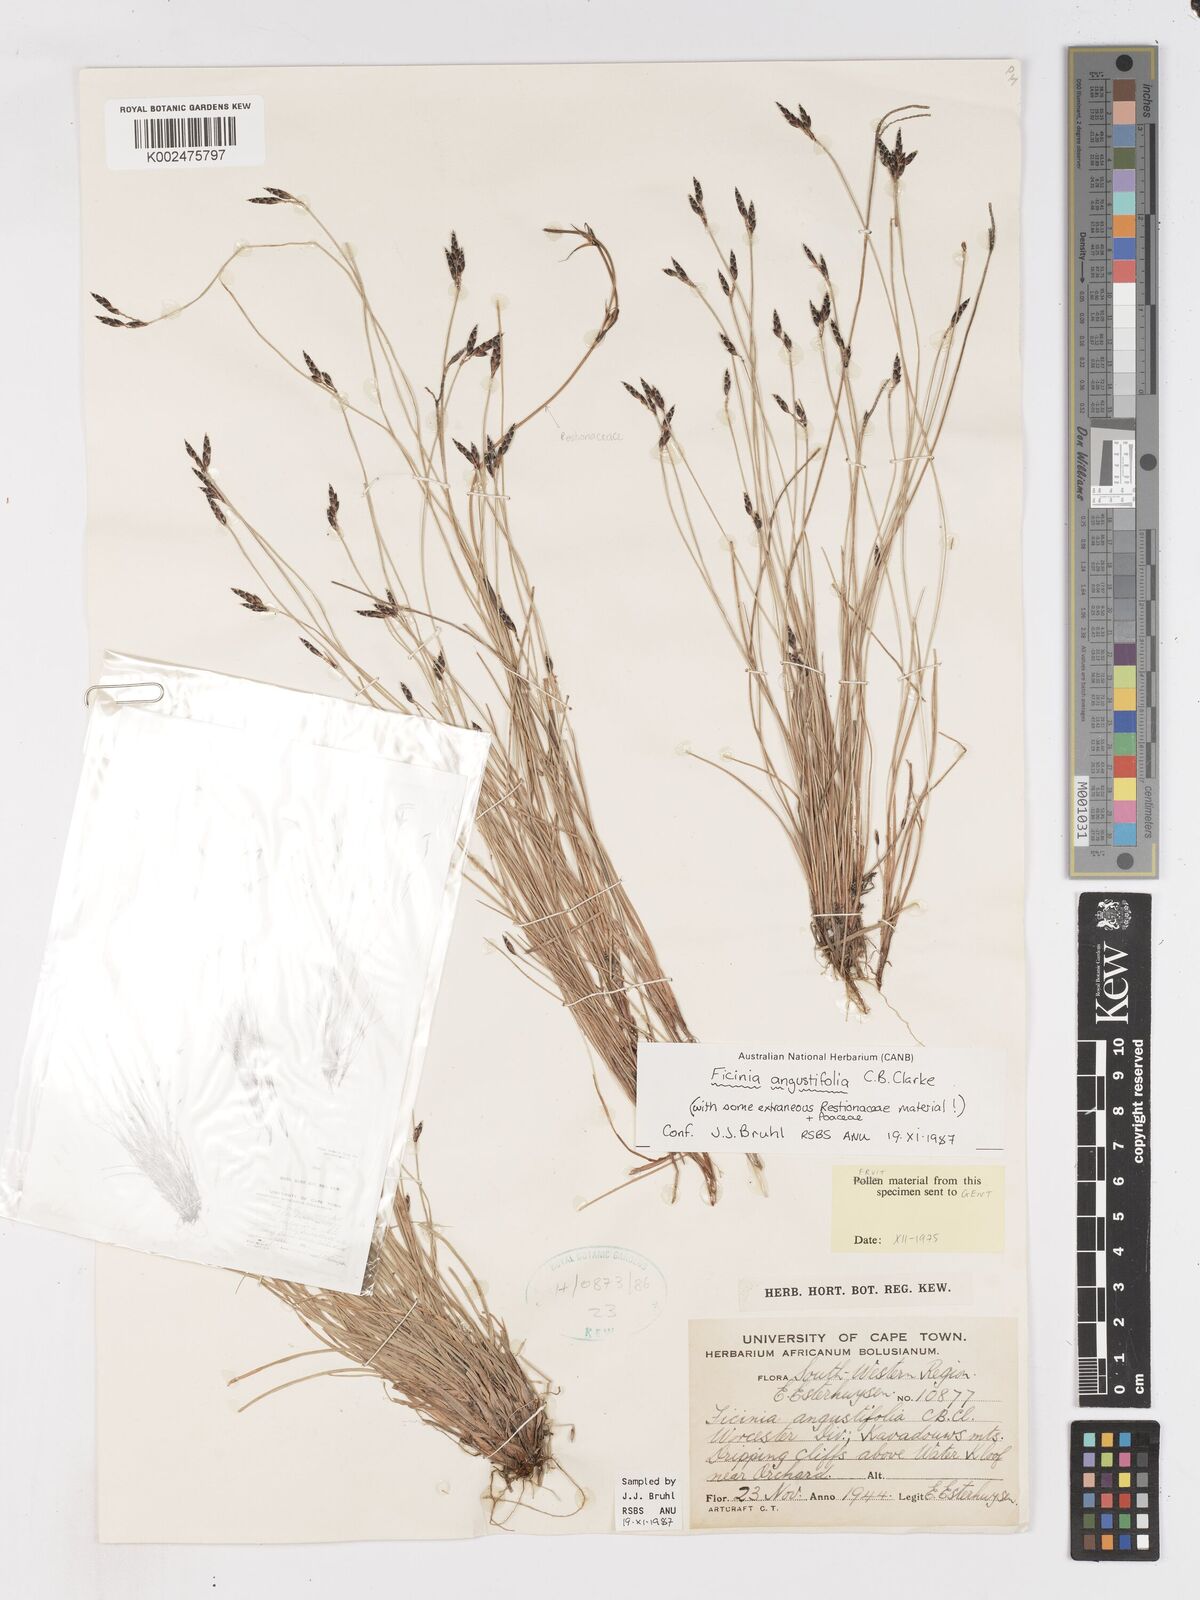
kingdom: Plantae
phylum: Tracheophyta
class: Liliopsida
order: Poales
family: Cyperaceae
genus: Ficinia
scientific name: Ficinia angustifolia
